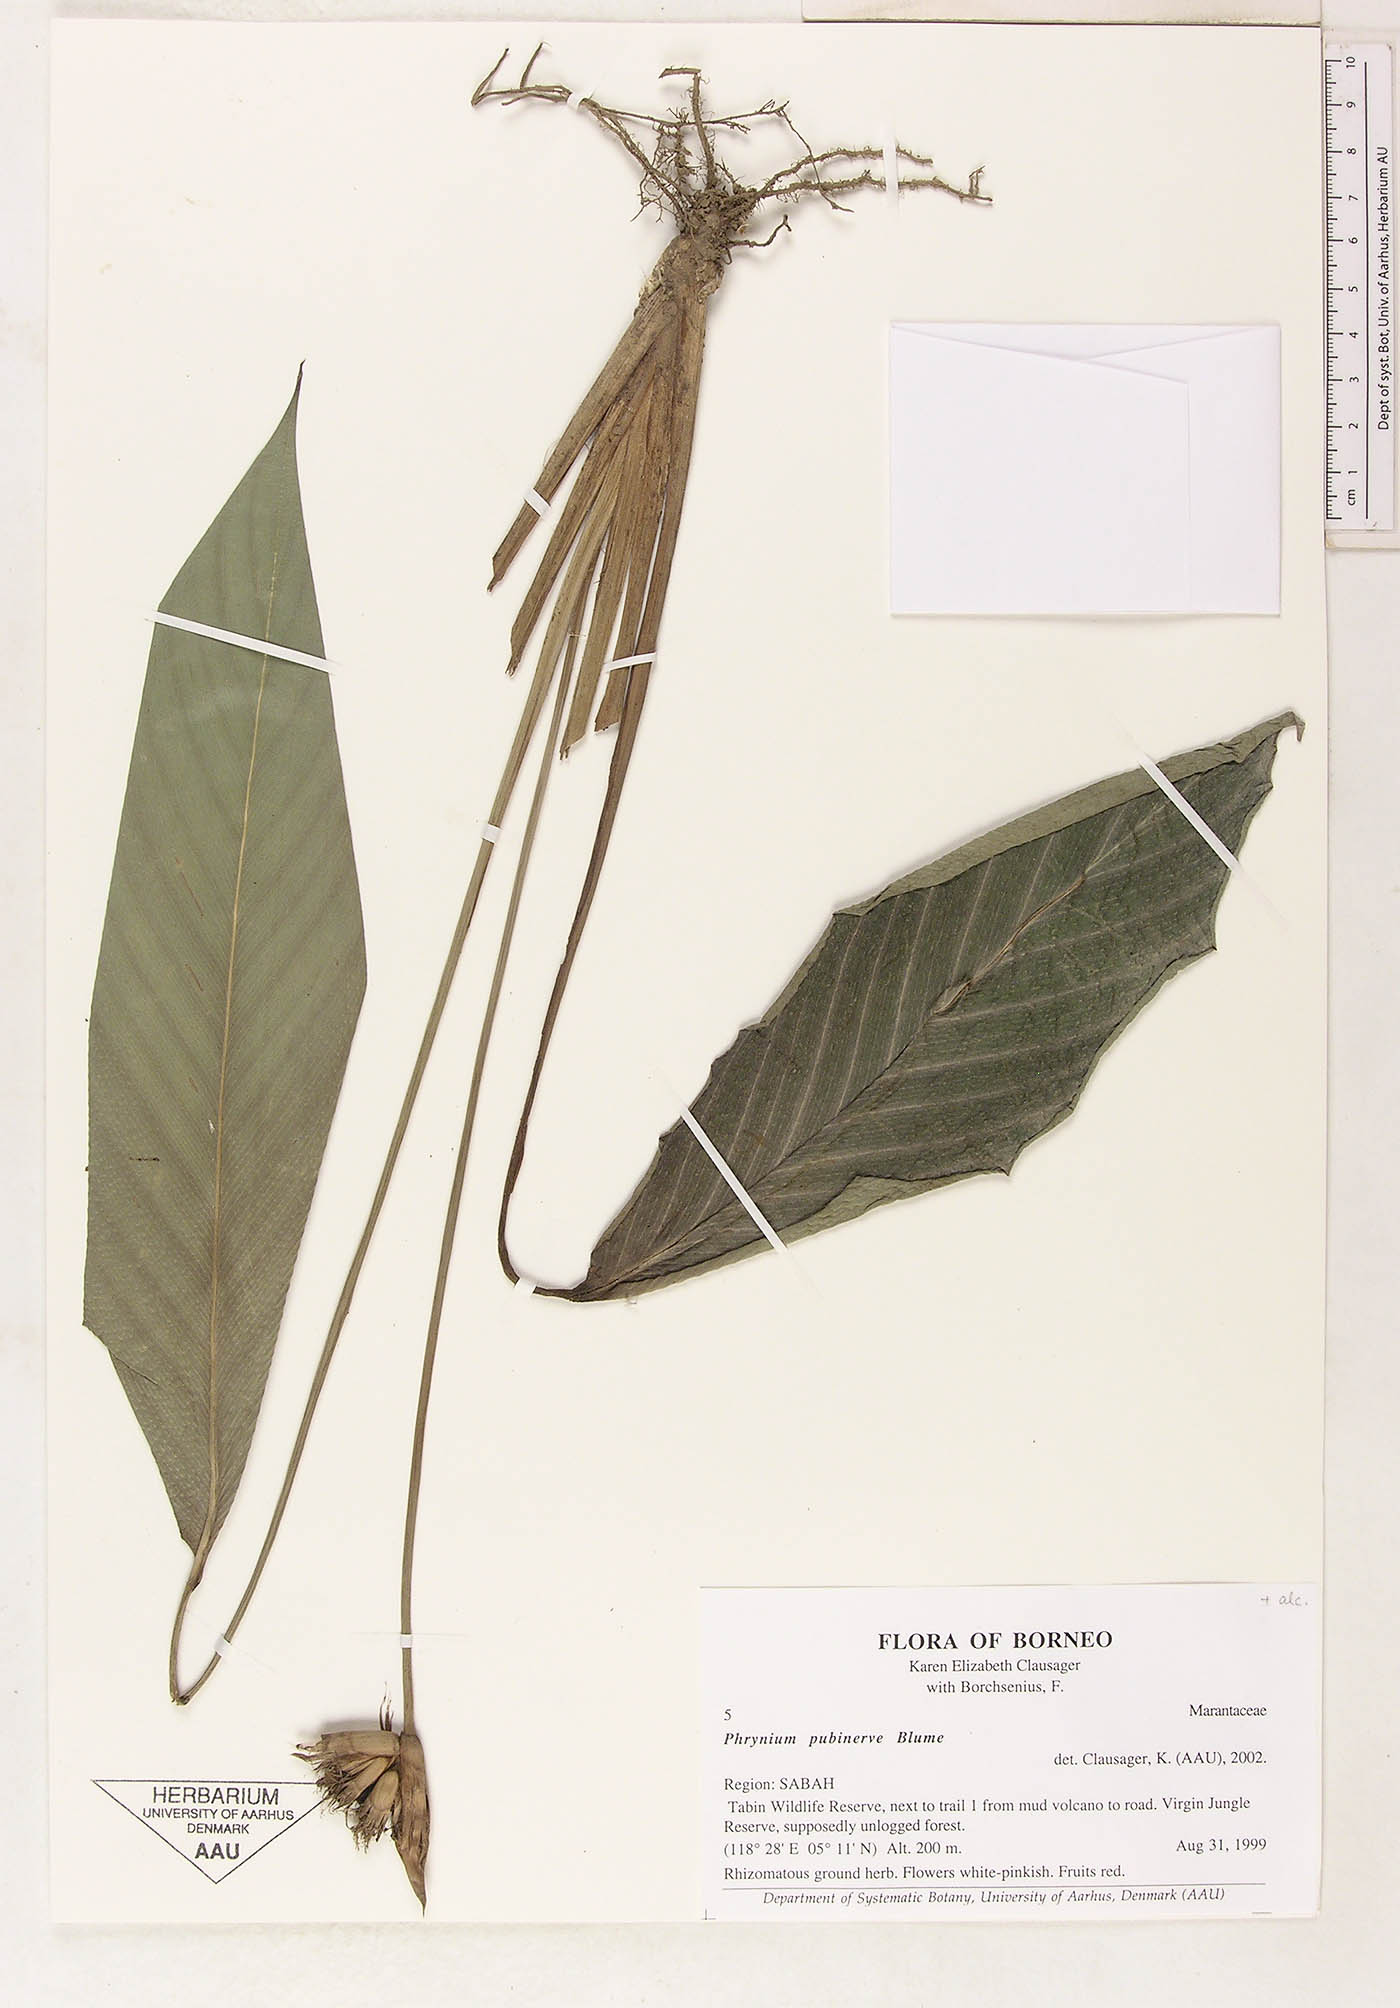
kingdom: Plantae
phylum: Tracheophyta
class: Liliopsida
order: Zingiberales
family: Marantaceae
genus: Phrynium
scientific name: Phrynium pubinerve
